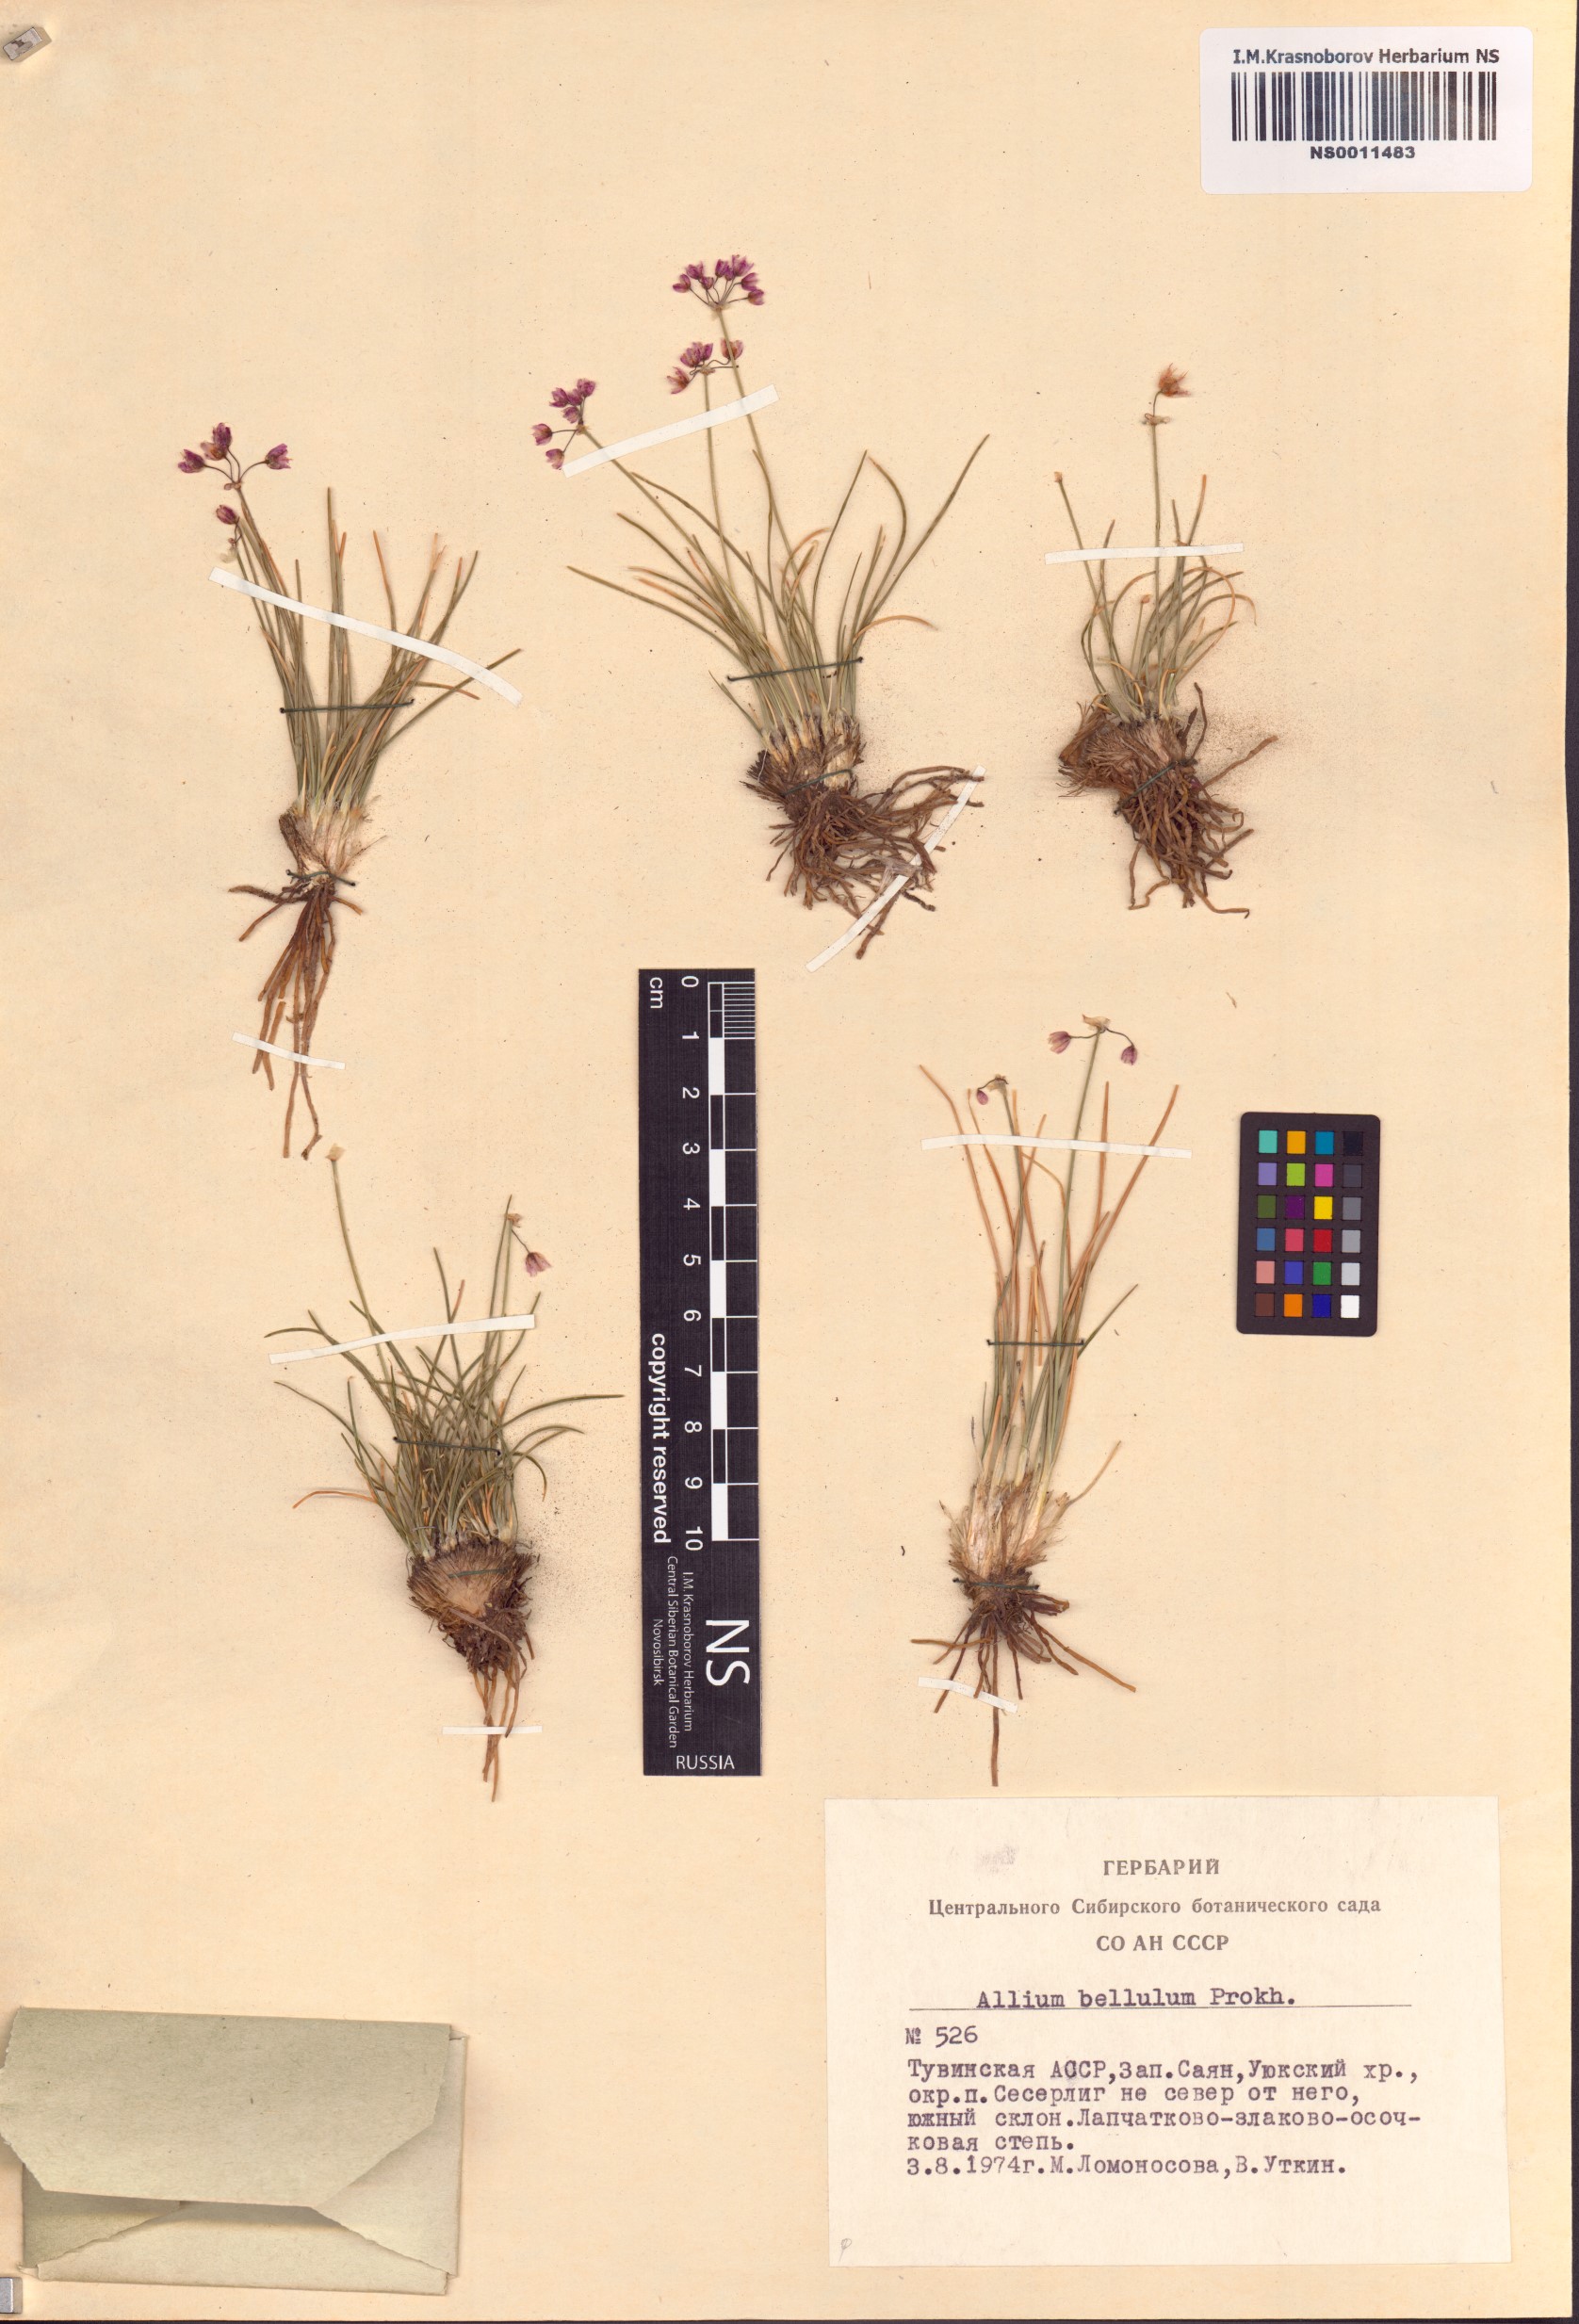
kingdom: Plantae
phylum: Tracheophyta
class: Liliopsida
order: Asparagales
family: Amaryllidaceae
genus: Allium
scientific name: Allium bellulum
